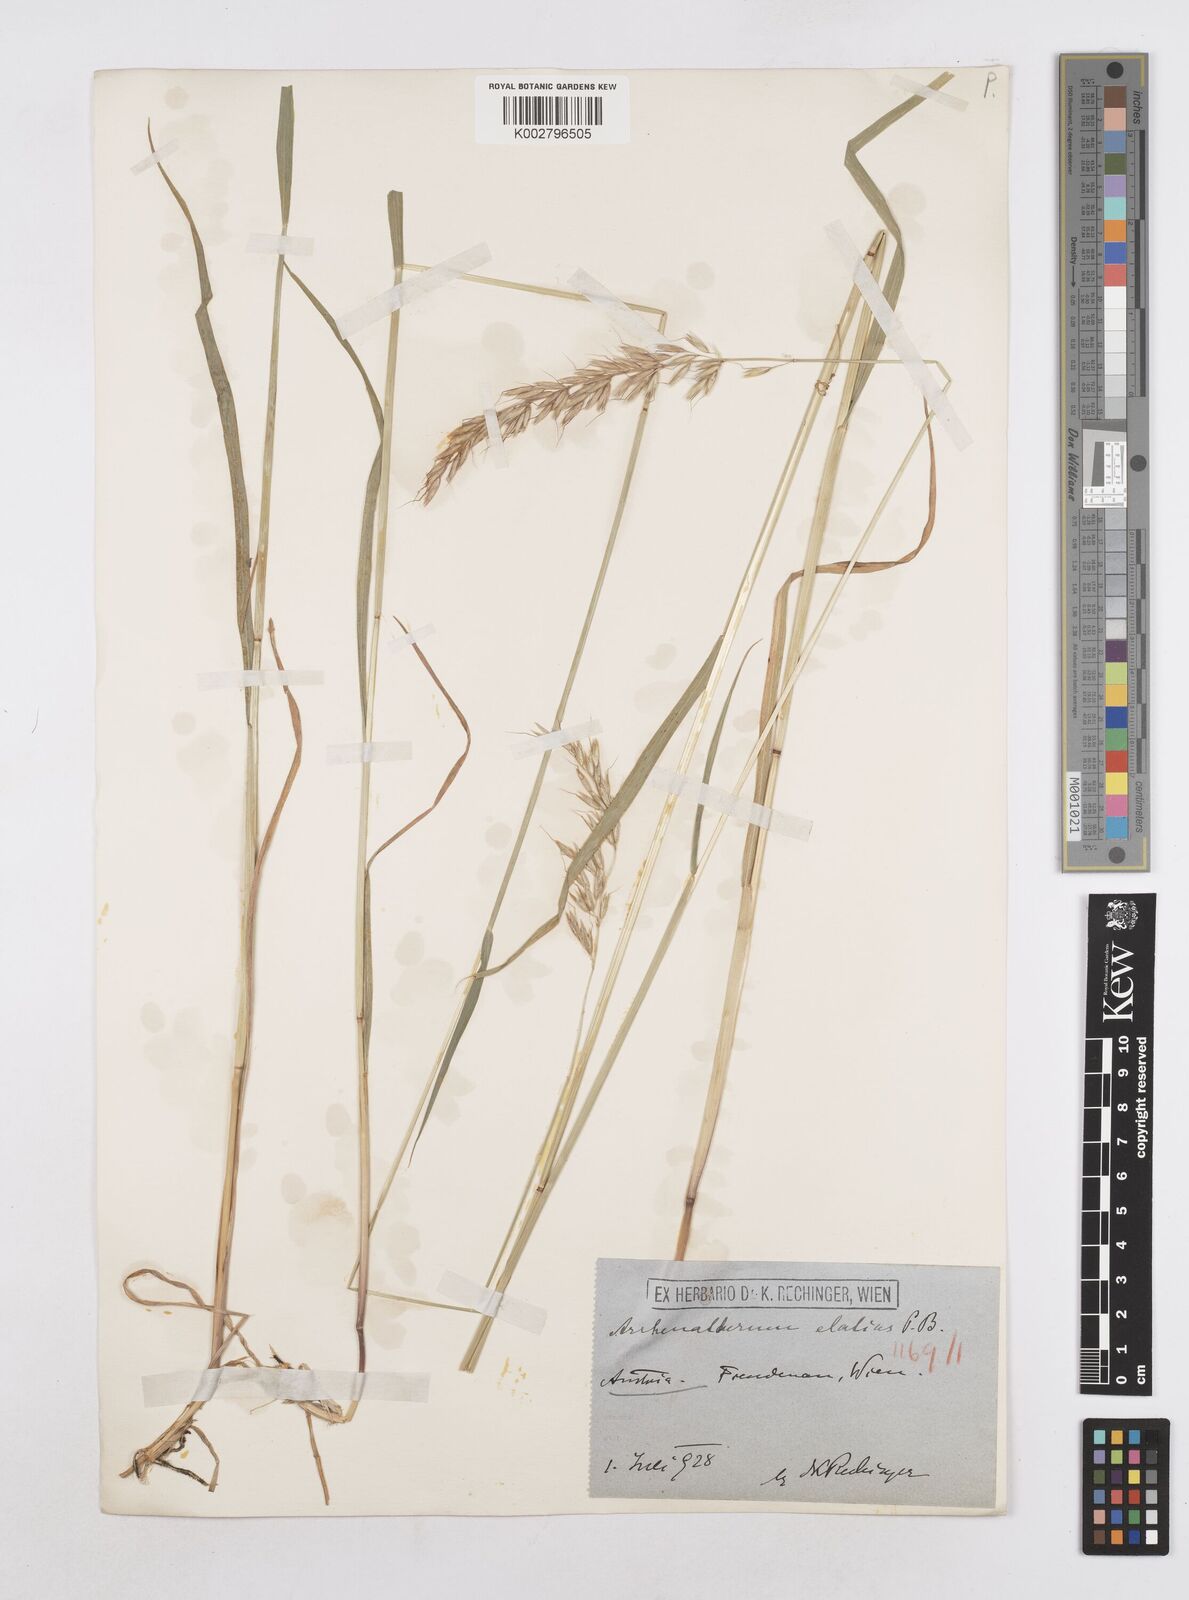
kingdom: Plantae
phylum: Tracheophyta
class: Liliopsida
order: Poales
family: Poaceae
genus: Arrhenatherum
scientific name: Arrhenatherum elatius
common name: Tall oatgrass
